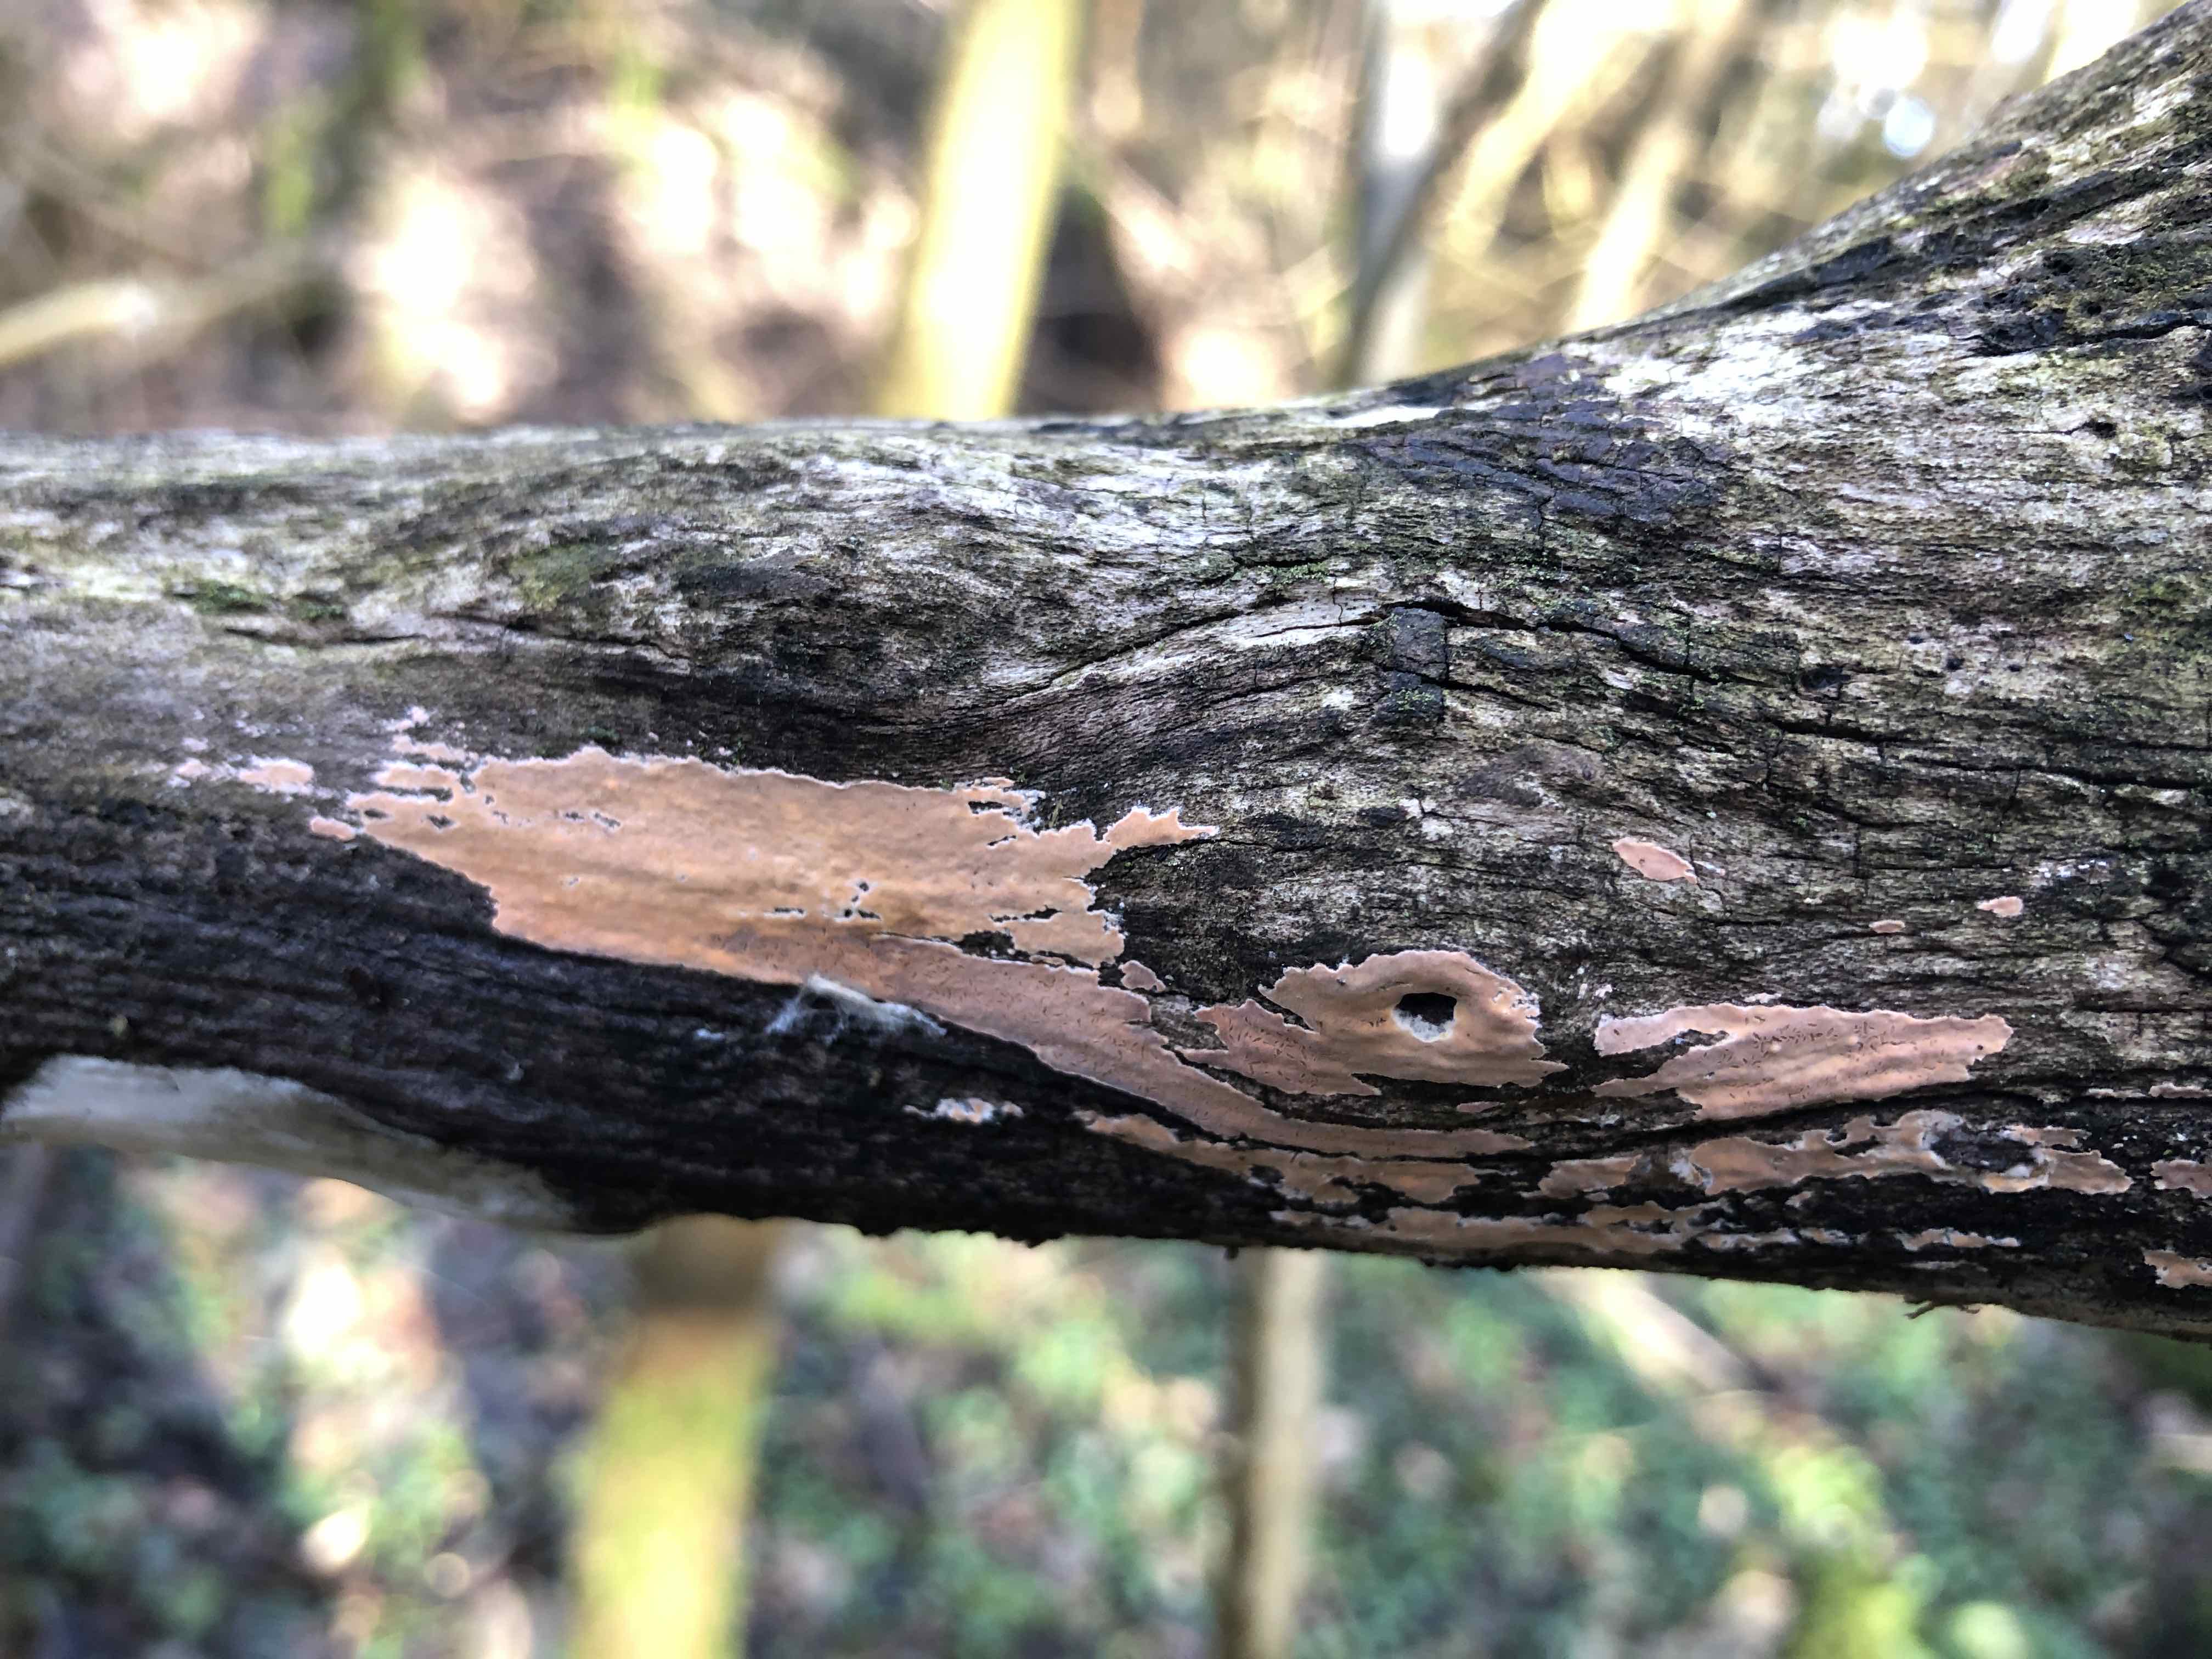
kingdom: Fungi
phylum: Basidiomycota
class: Agaricomycetes
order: Russulales
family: Peniophoraceae
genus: Peniophora
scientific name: Peniophora incarnata
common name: laksefarvet voksskind
